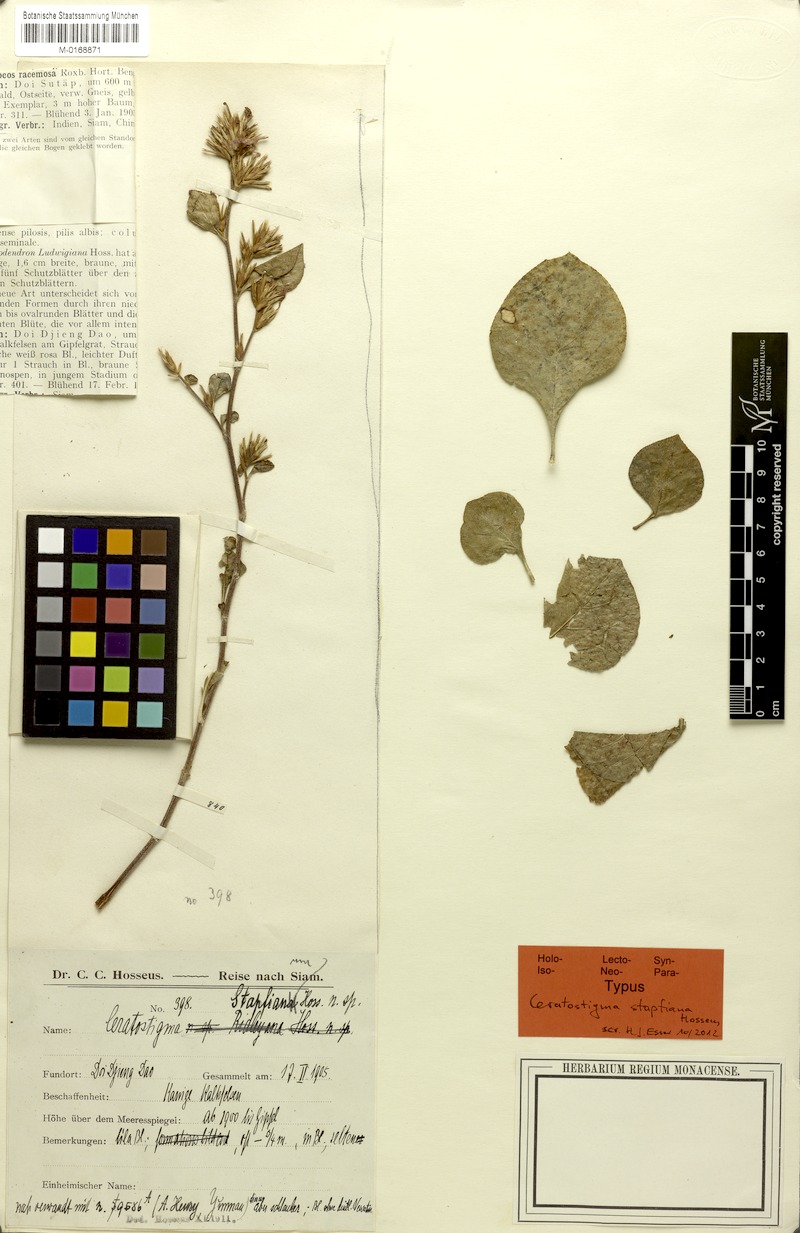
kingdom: Plantae
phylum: Tracheophyta
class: Magnoliopsida
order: Caryophyllales
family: Plumbaginaceae
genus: Ceratostigma
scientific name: Ceratostigma asperrimum
